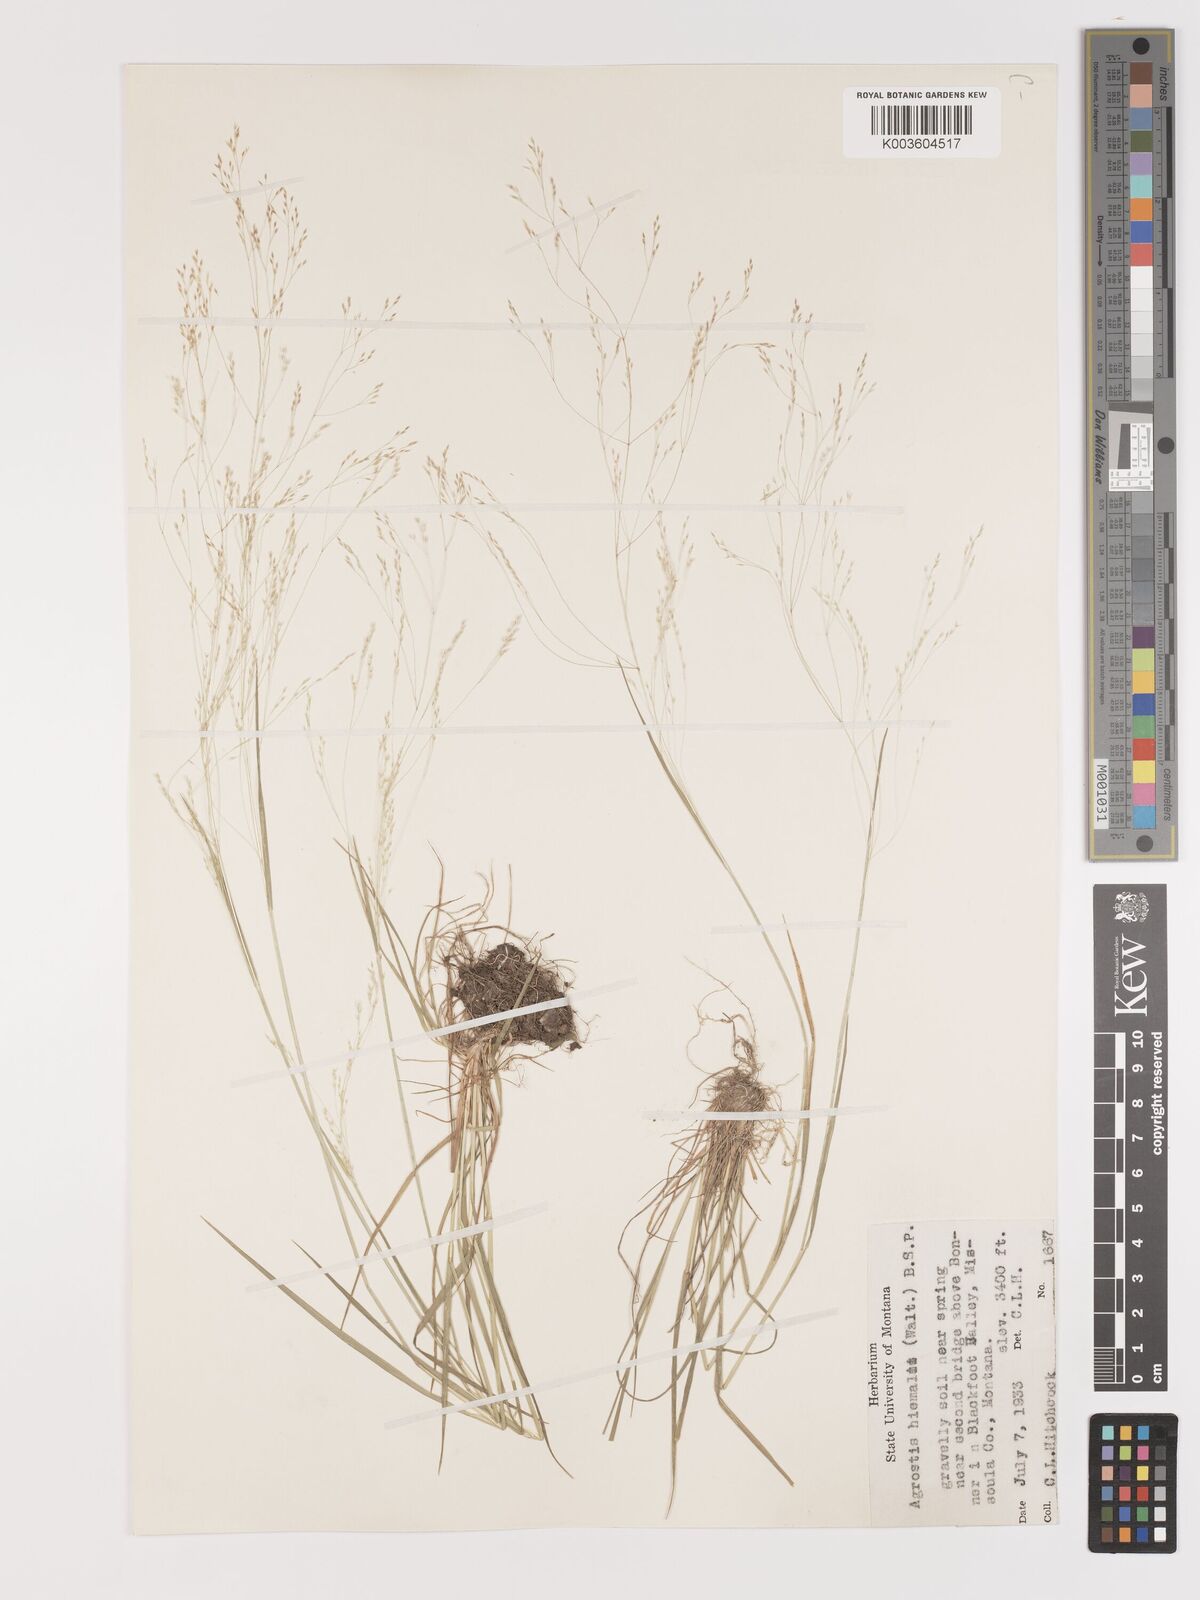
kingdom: Plantae
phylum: Tracheophyta
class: Liliopsida
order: Poales
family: Poaceae
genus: Agrostis
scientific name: Agrostis hyemalis
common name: Small bent
